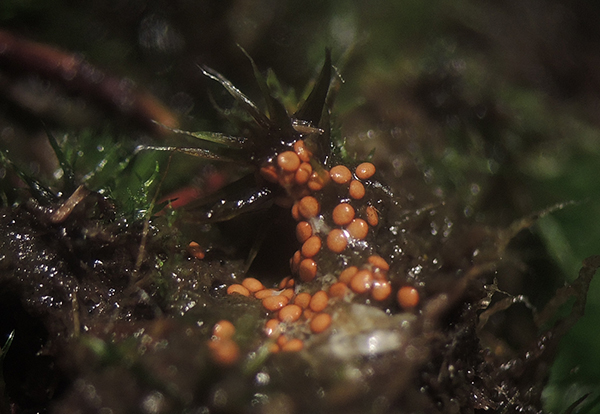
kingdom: Fungi
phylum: Basidiomycota
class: Agaricomycetes
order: Agaricales
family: Agaricaceae
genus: Mycocalia
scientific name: Mycocalia denudata
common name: liden linsepude
